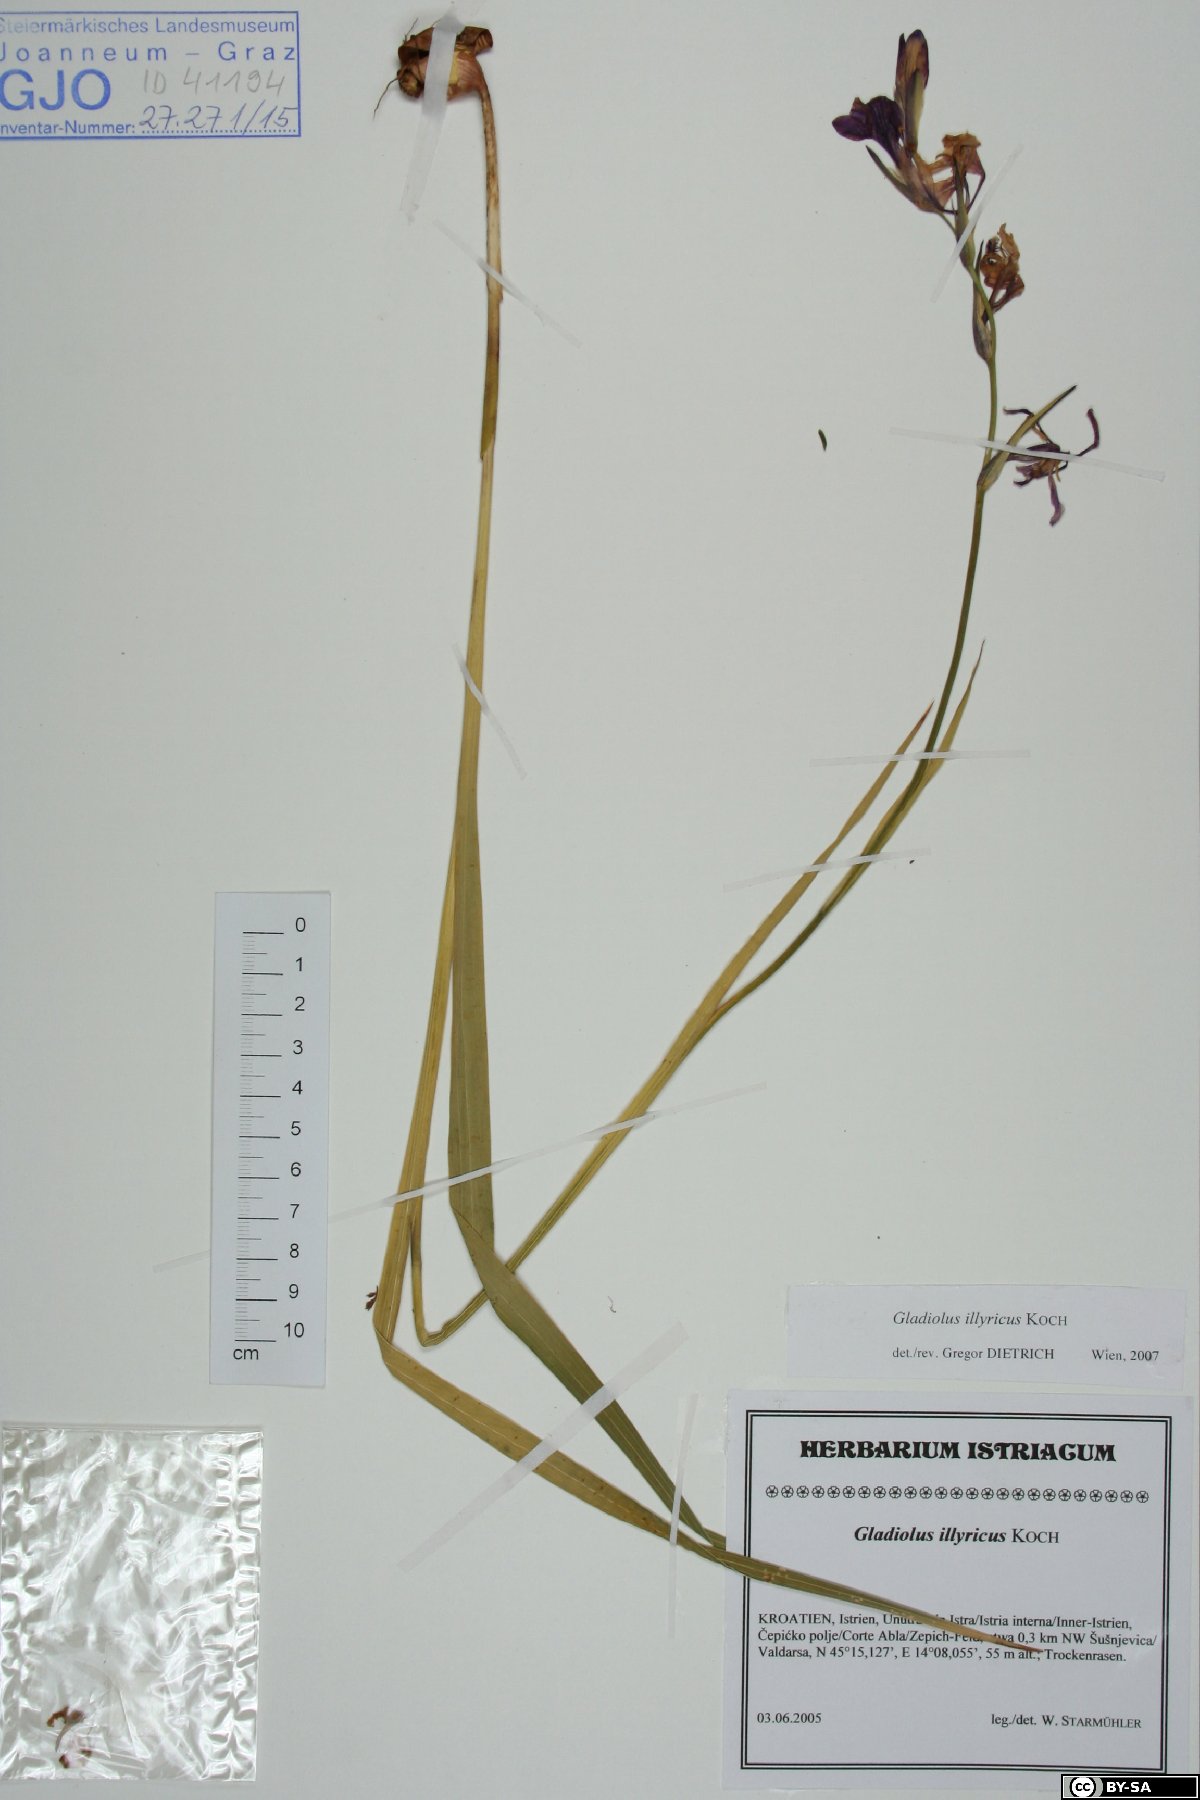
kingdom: Plantae
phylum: Tracheophyta
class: Liliopsida
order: Asparagales
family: Iridaceae
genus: Gladiolus
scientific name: Gladiolus illyricus
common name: Wild gladiolus
